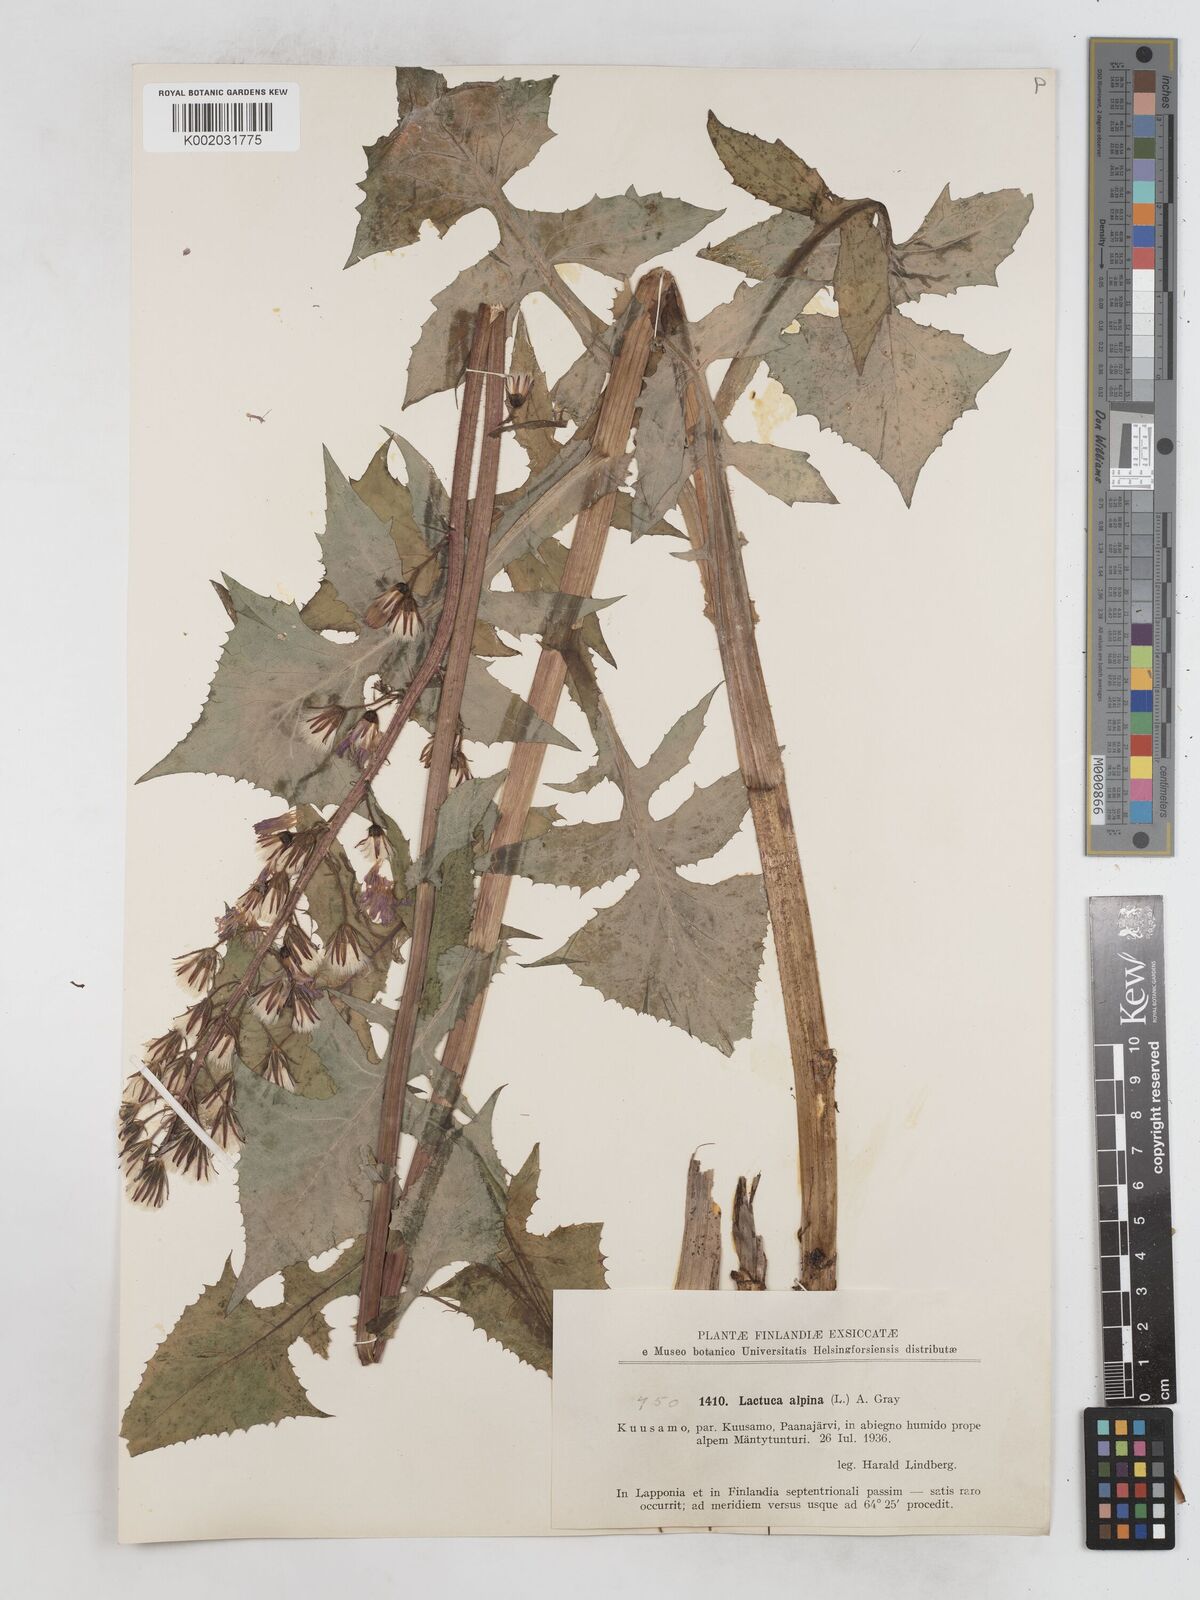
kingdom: Plantae
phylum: Tracheophyta
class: Magnoliopsida
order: Asterales
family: Asteraceae
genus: Cicerbita
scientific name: Cicerbita alpina
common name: Alpine blue-sow-thistle
